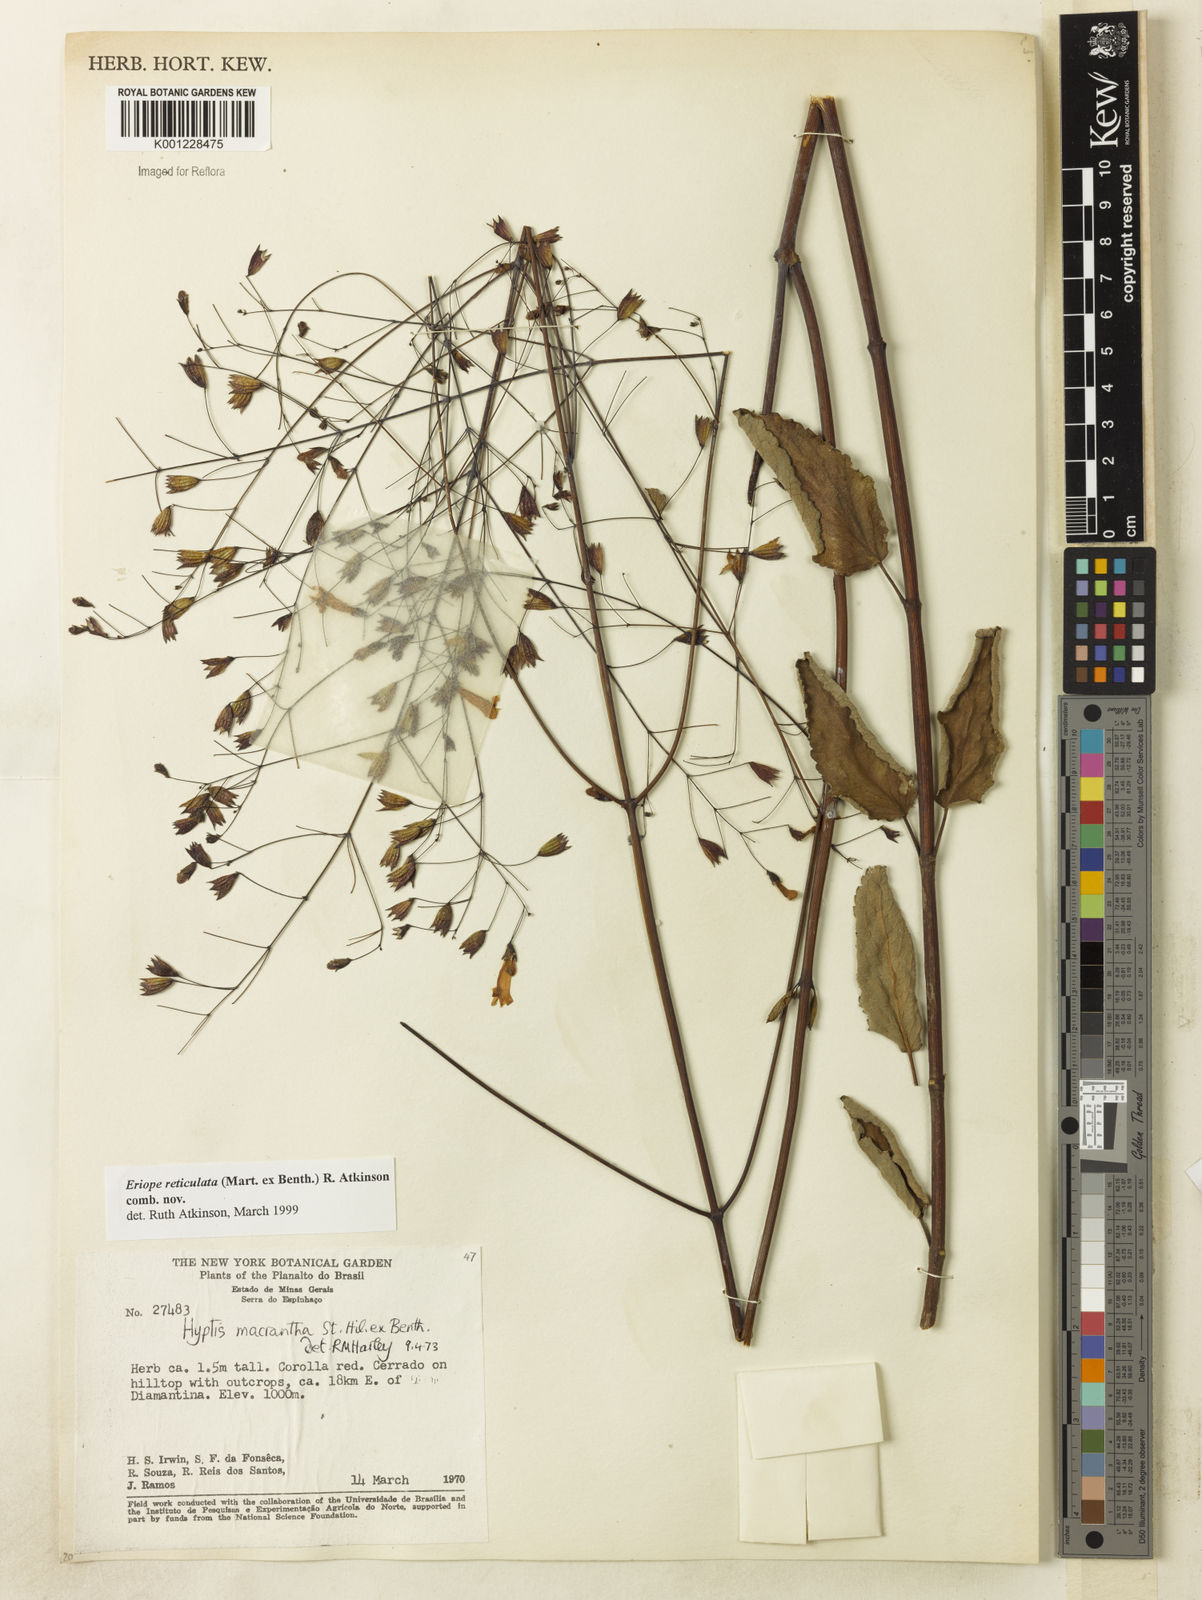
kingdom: Plantae
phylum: Tracheophyta
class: Magnoliopsida
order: Lamiales
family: Lamiaceae
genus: Hypenia
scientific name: Hypenia reticulata
